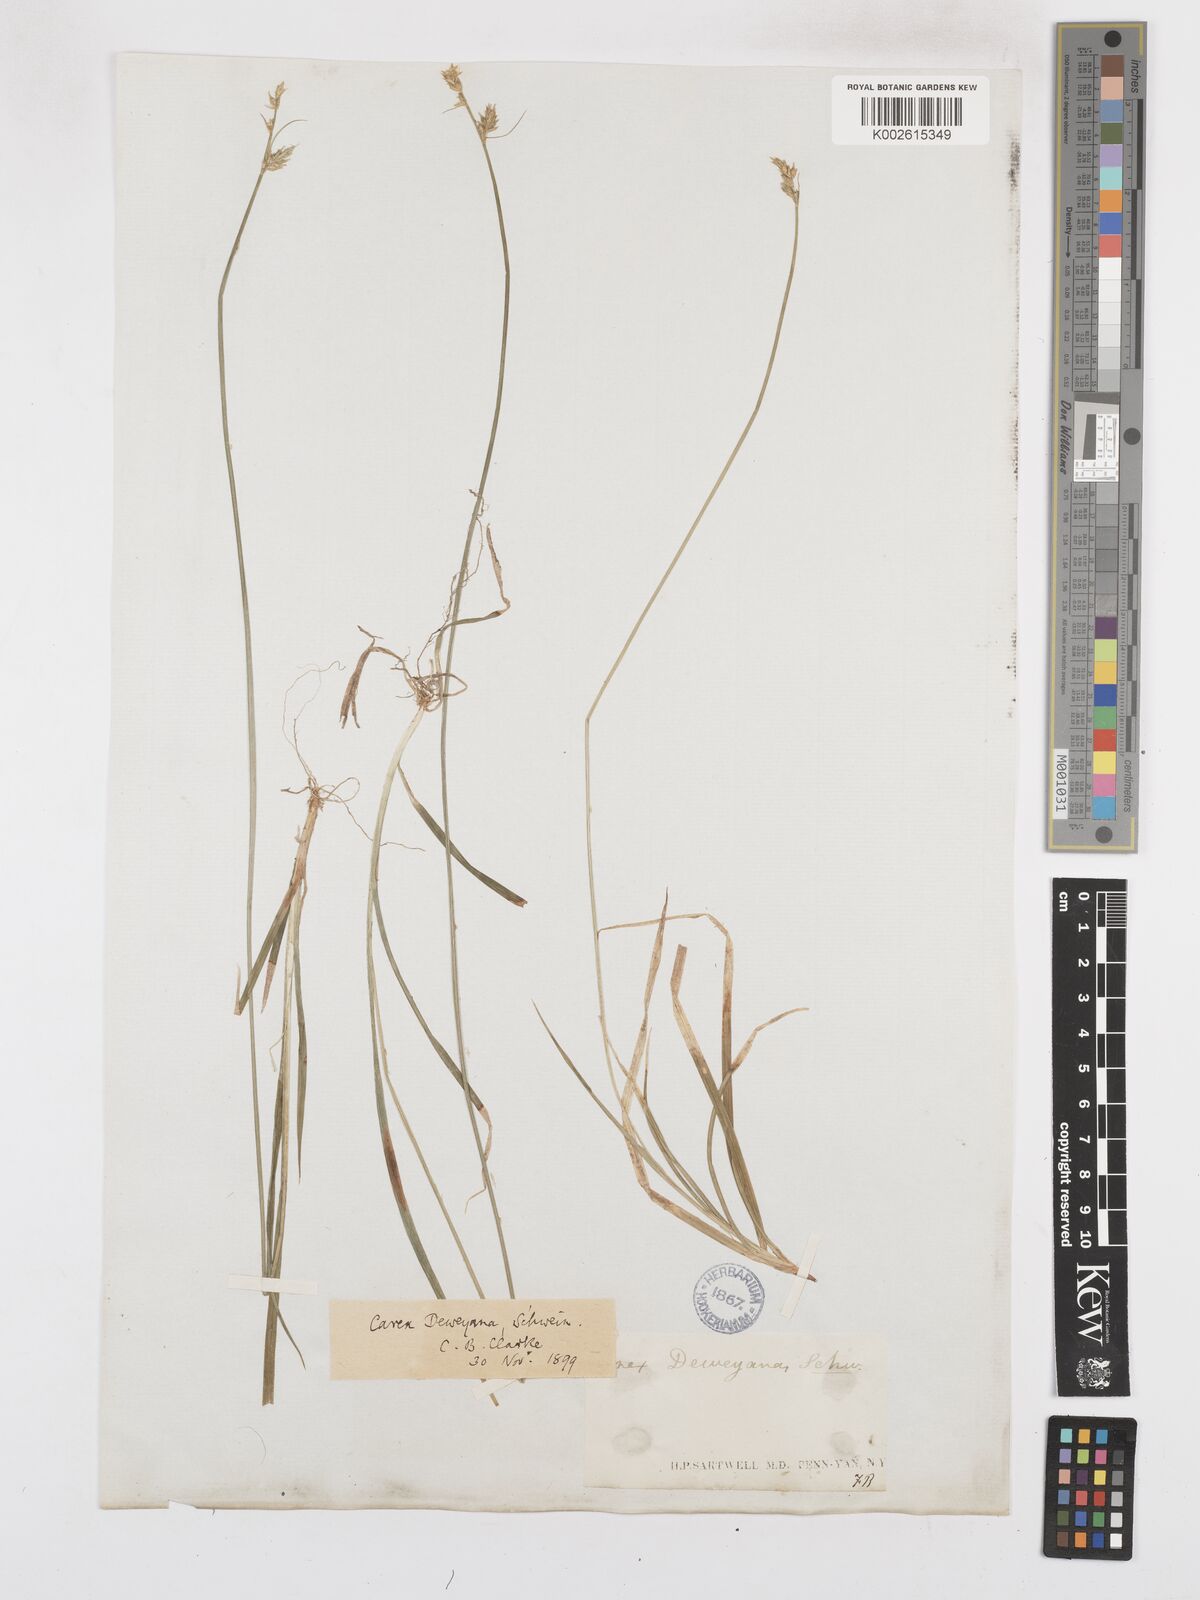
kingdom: Plantae
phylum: Tracheophyta
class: Liliopsida
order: Poales
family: Cyperaceae
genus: Carex
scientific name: Carex deweyana
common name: Dewey's sedge
